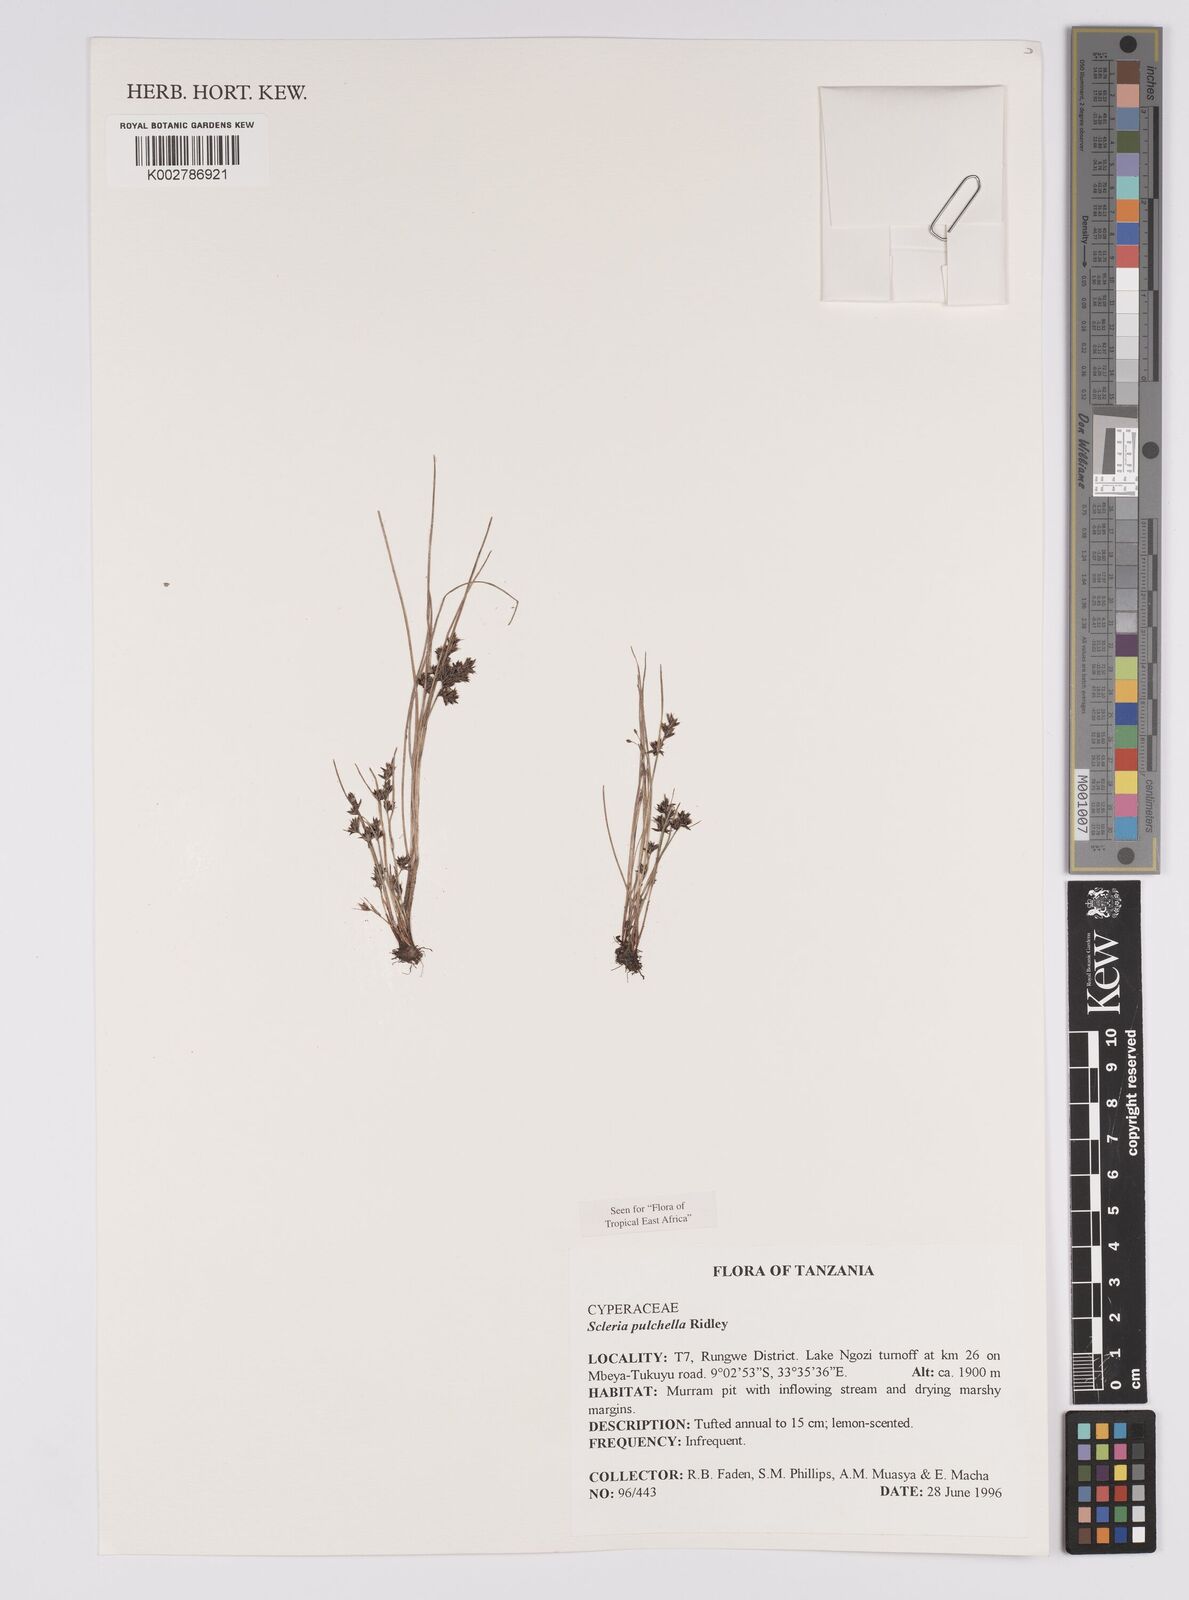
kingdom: Plantae
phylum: Tracheophyta
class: Liliopsida
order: Poales
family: Cyperaceae
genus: Scleria
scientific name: Scleria pulchella
